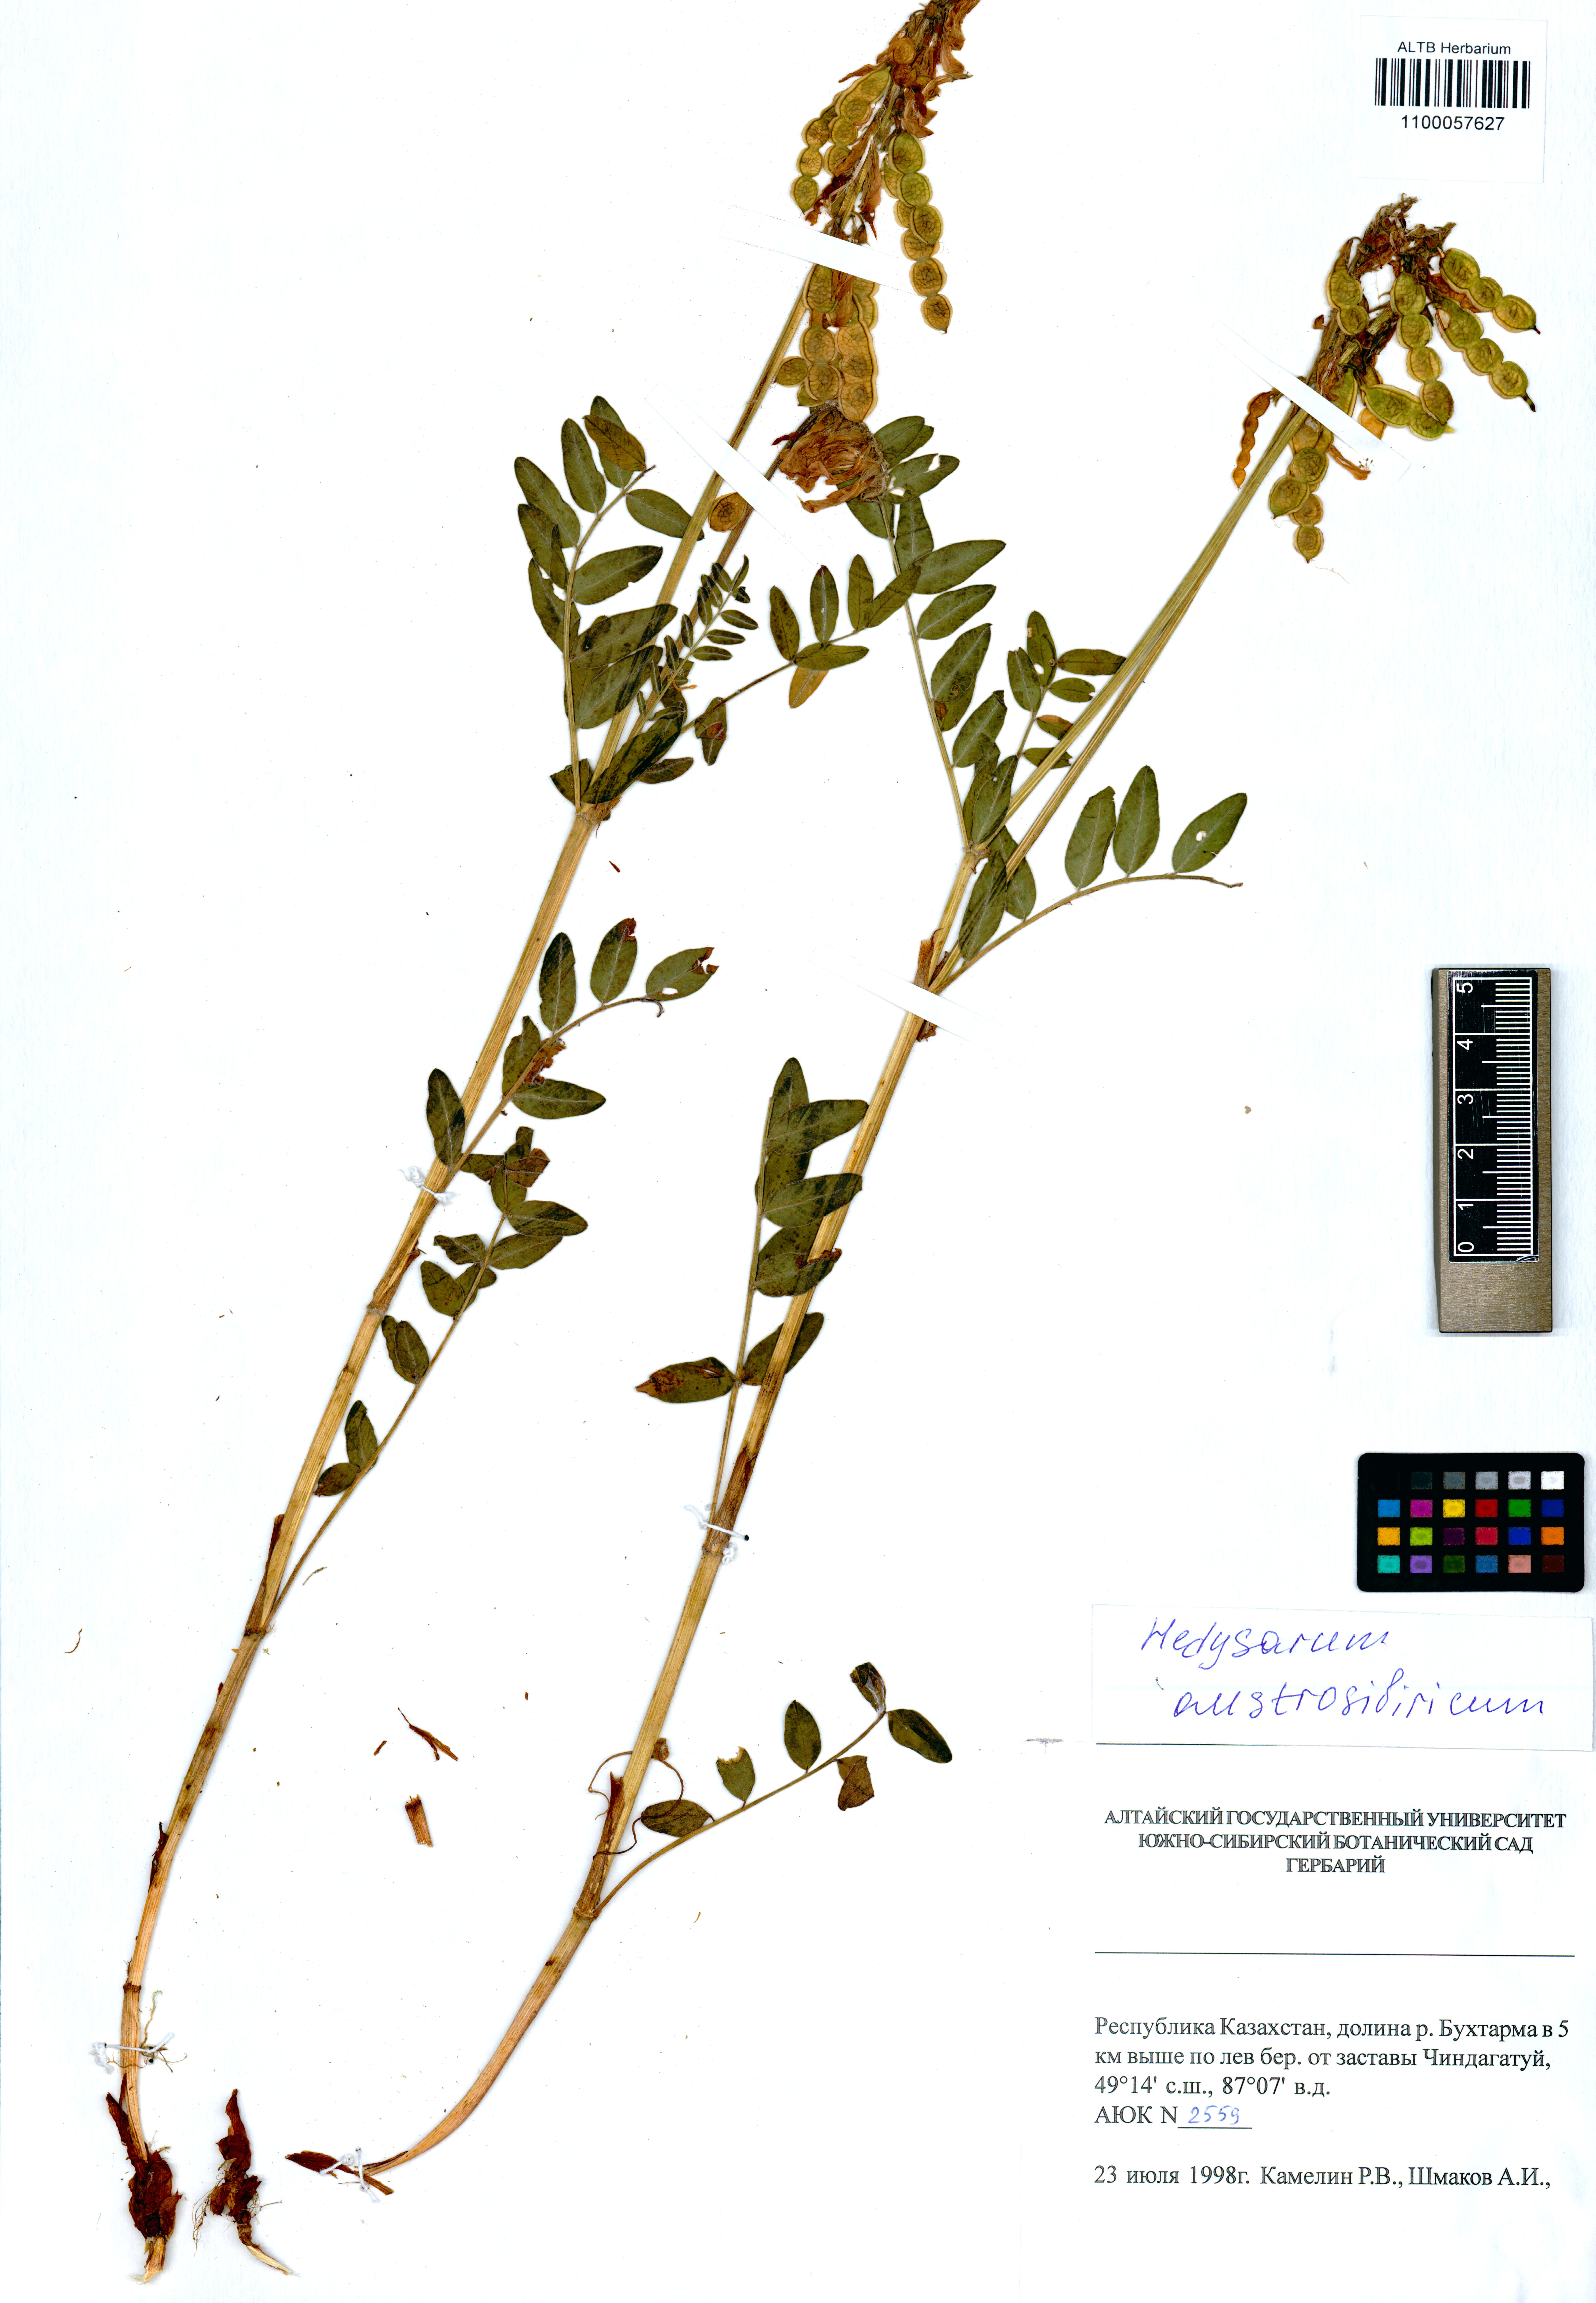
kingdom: Plantae
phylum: Tracheophyta
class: Magnoliopsida
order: Fabales
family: Fabaceae
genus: Hedysarum
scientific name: Hedysarum neglectum
